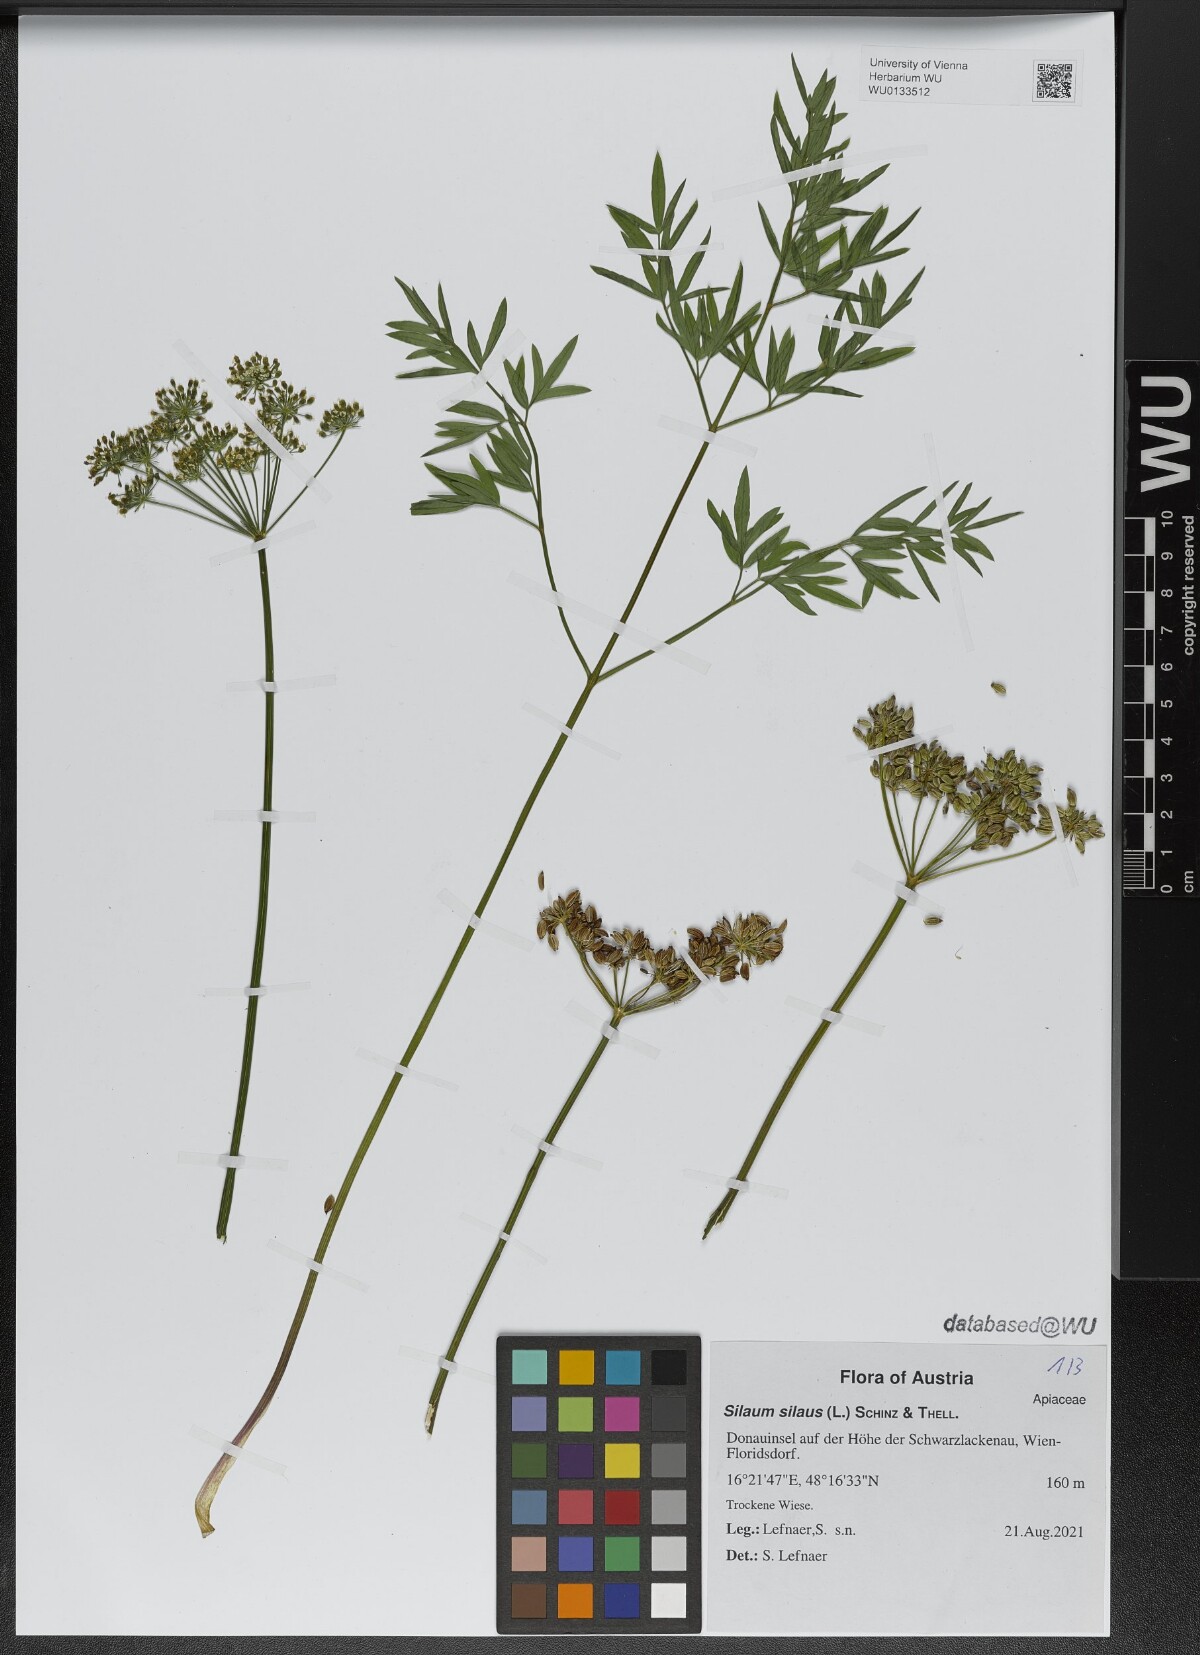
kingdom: Plantae
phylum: Tracheophyta
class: Magnoliopsida
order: Apiales
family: Apiaceae
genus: Silaum
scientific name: Silaum silaus
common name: Pepper-saxifrage
